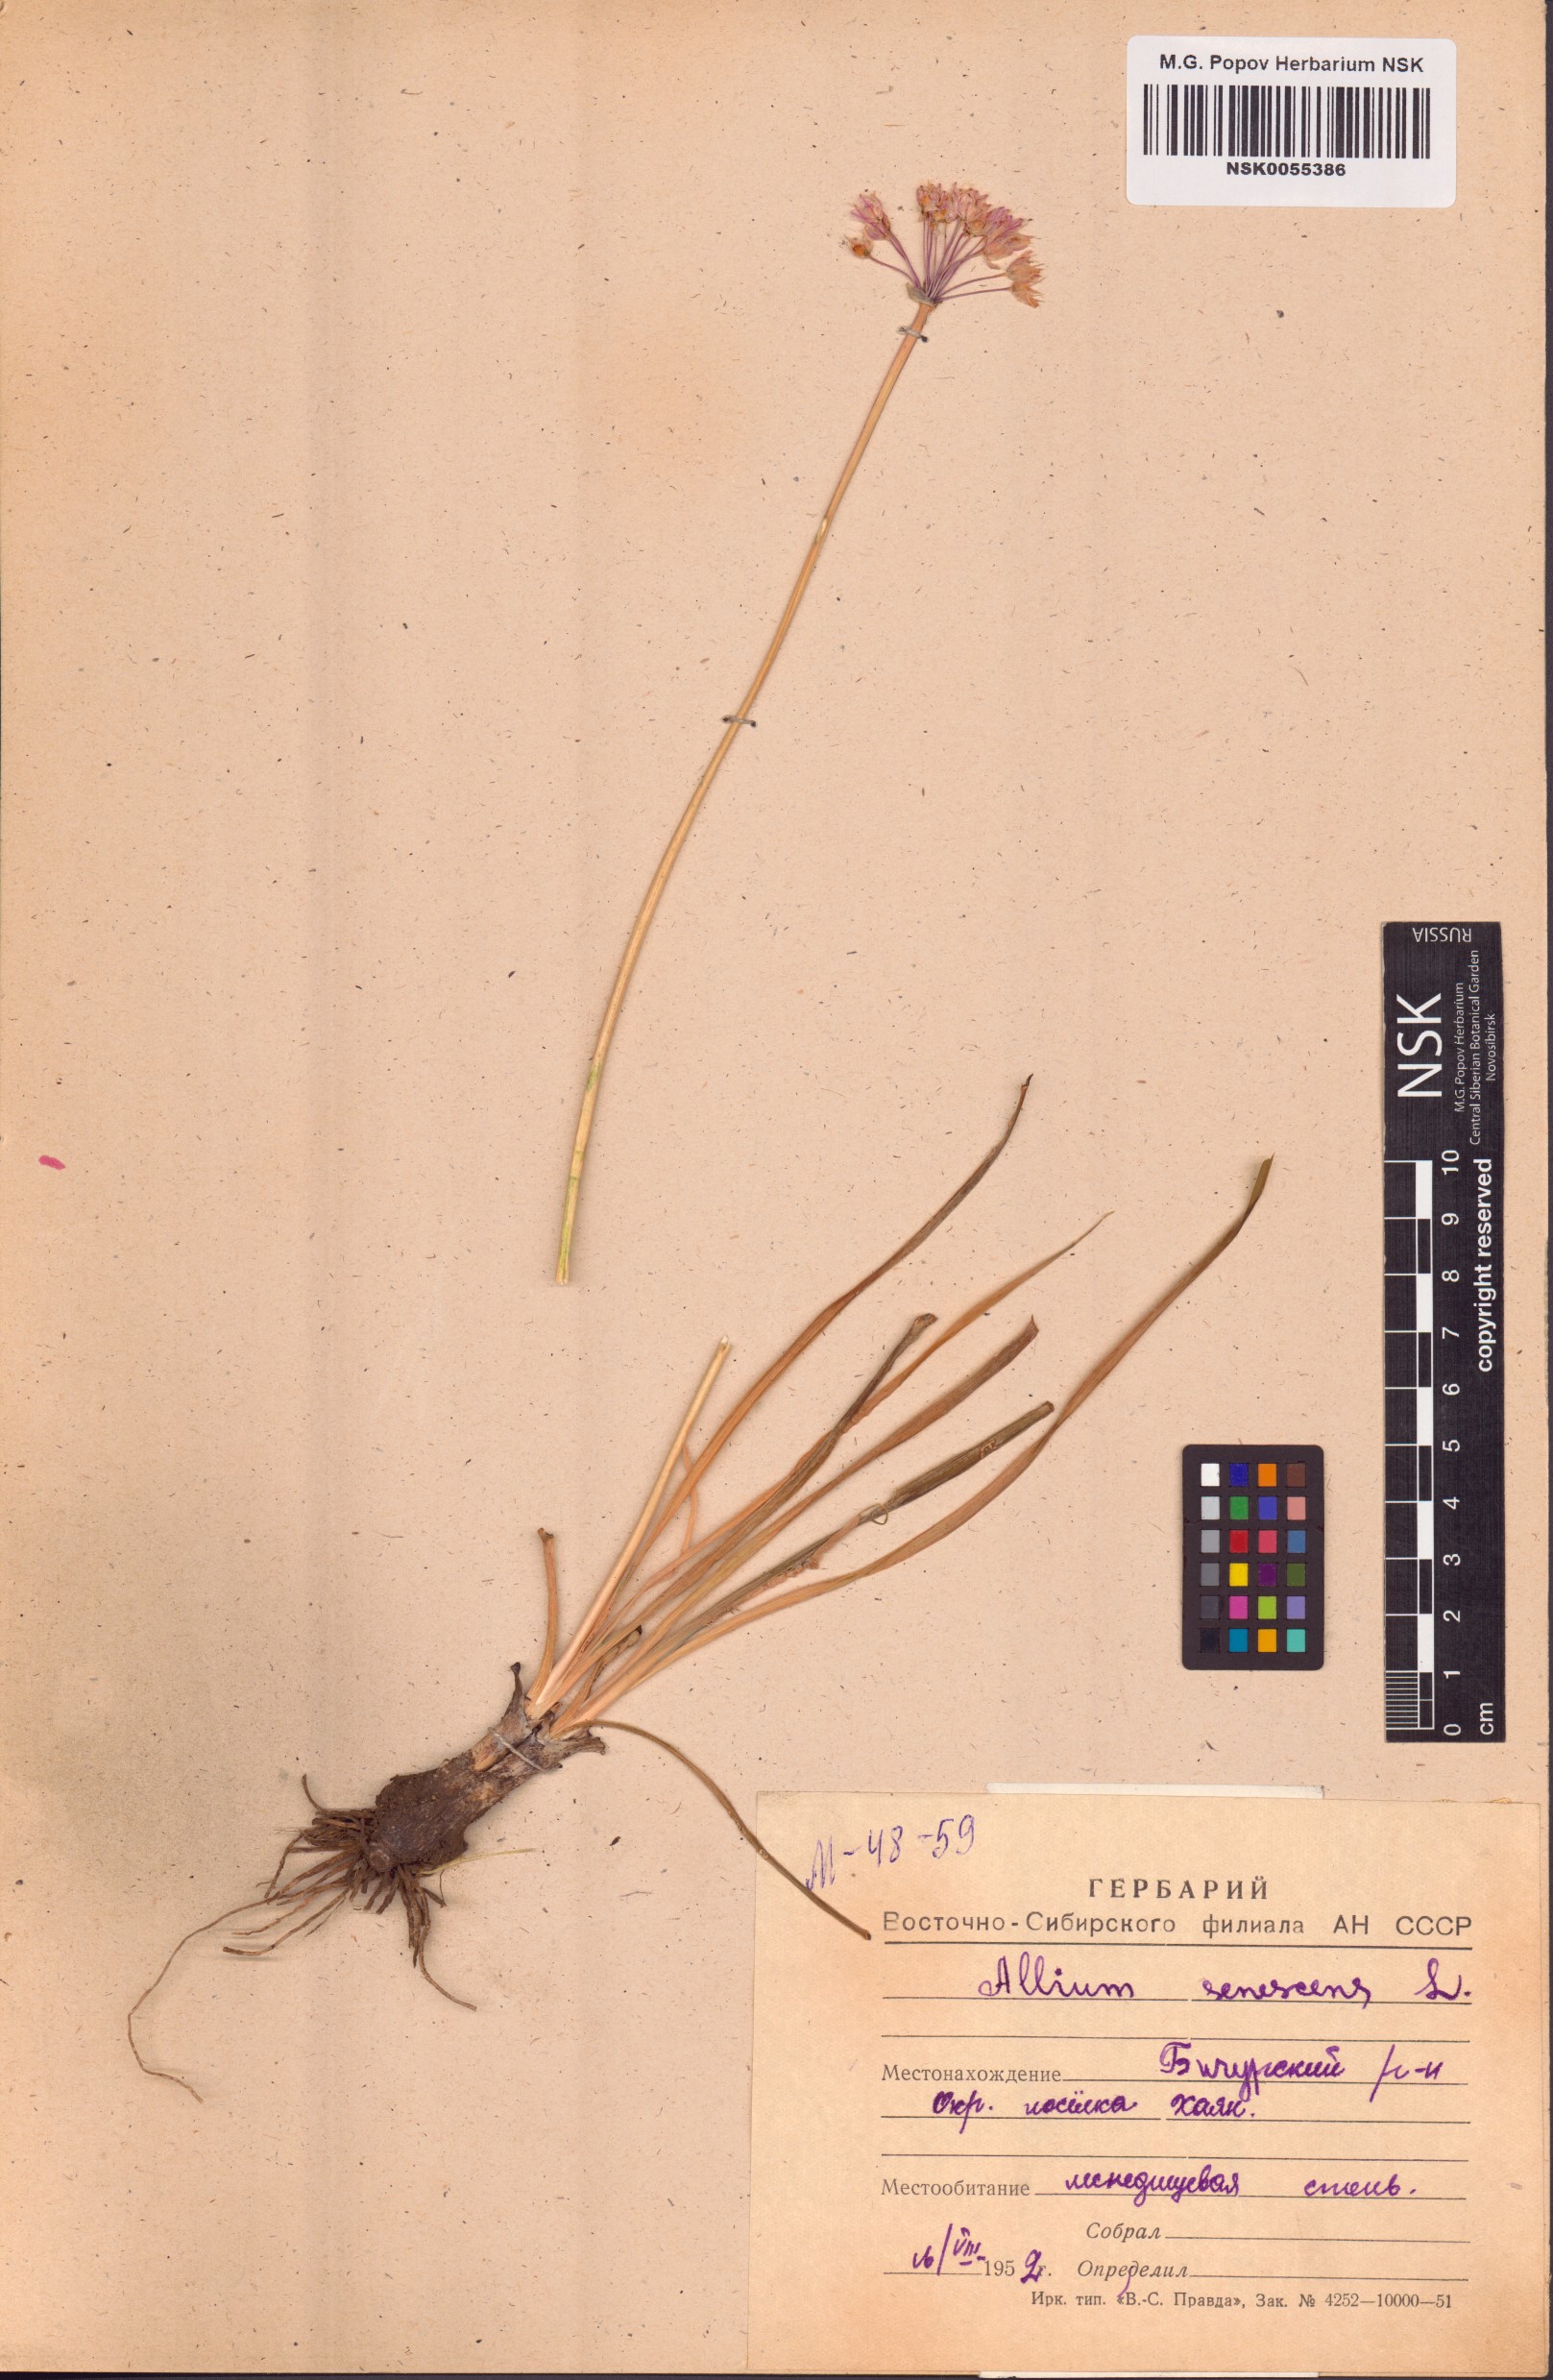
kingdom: Plantae
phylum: Tracheophyta
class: Liliopsida
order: Asparagales
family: Amaryllidaceae
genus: Allium
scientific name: Allium senescens
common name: German garlic
